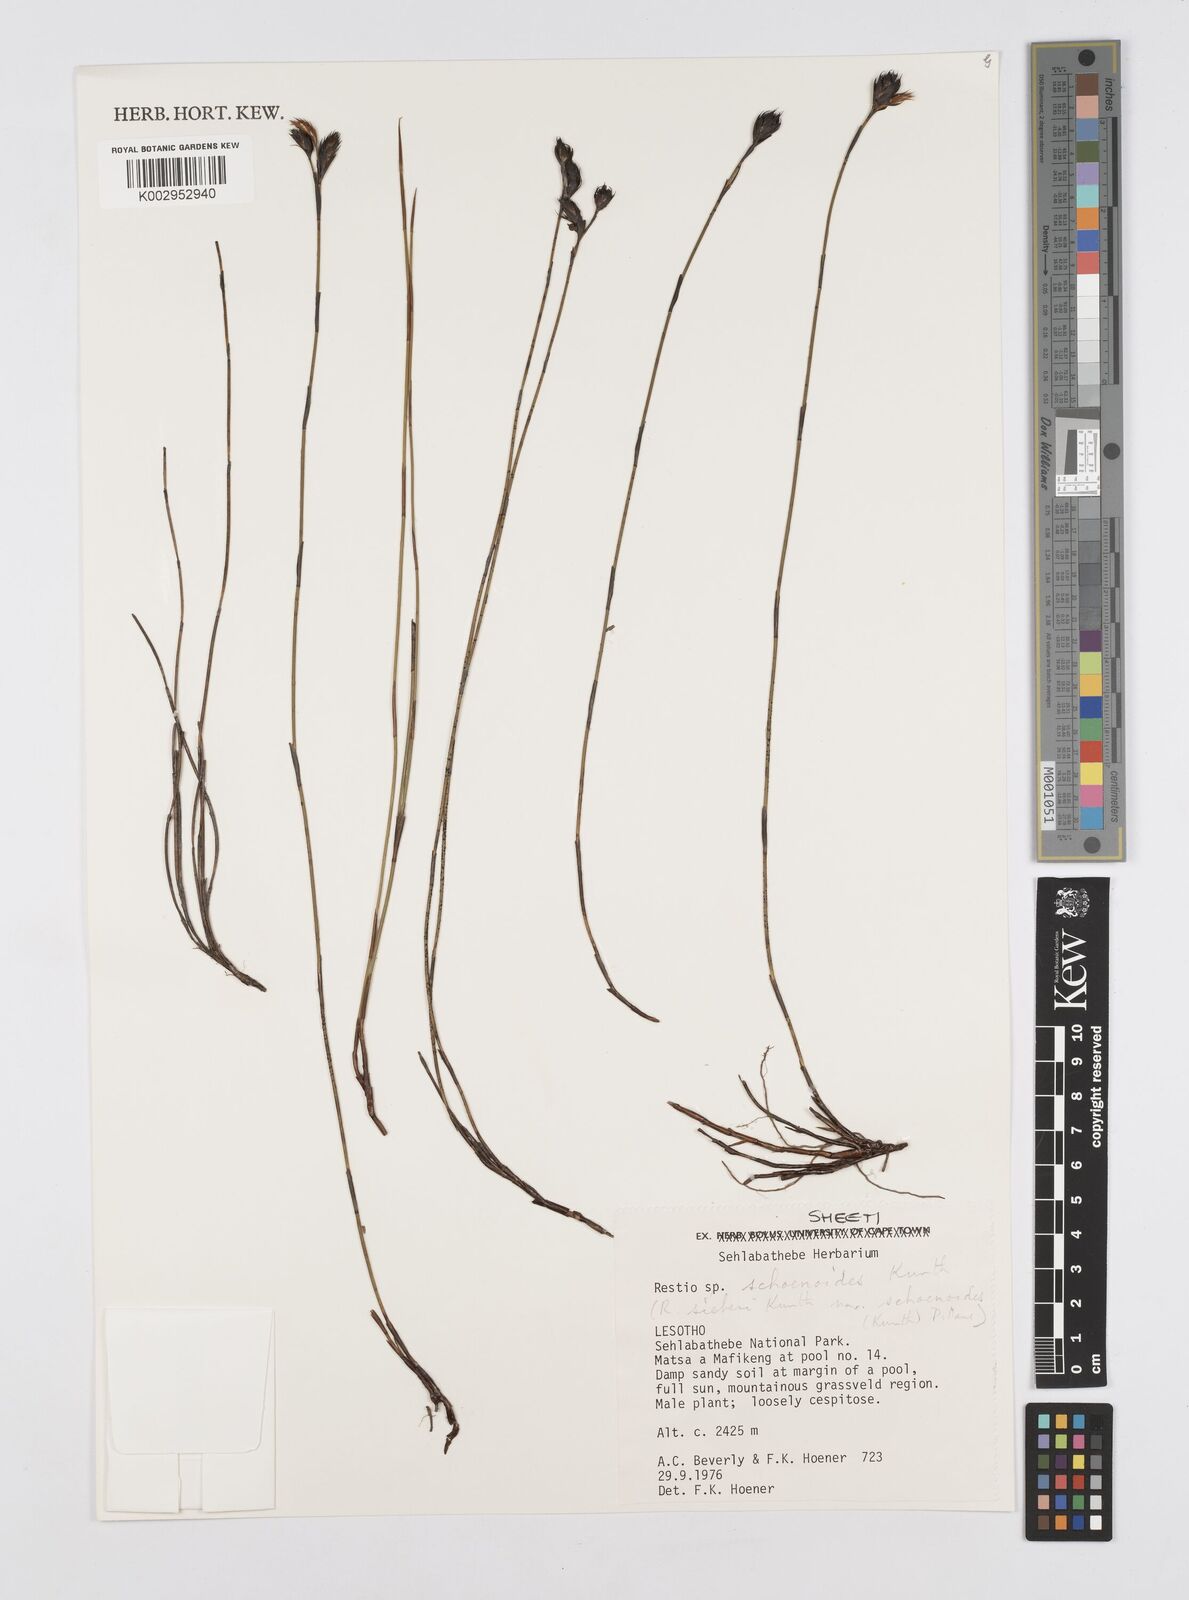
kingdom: Plantae
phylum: Tracheophyta
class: Liliopsida
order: Poales
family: Restionaceae
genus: Restio
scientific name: Restio schoenoides
